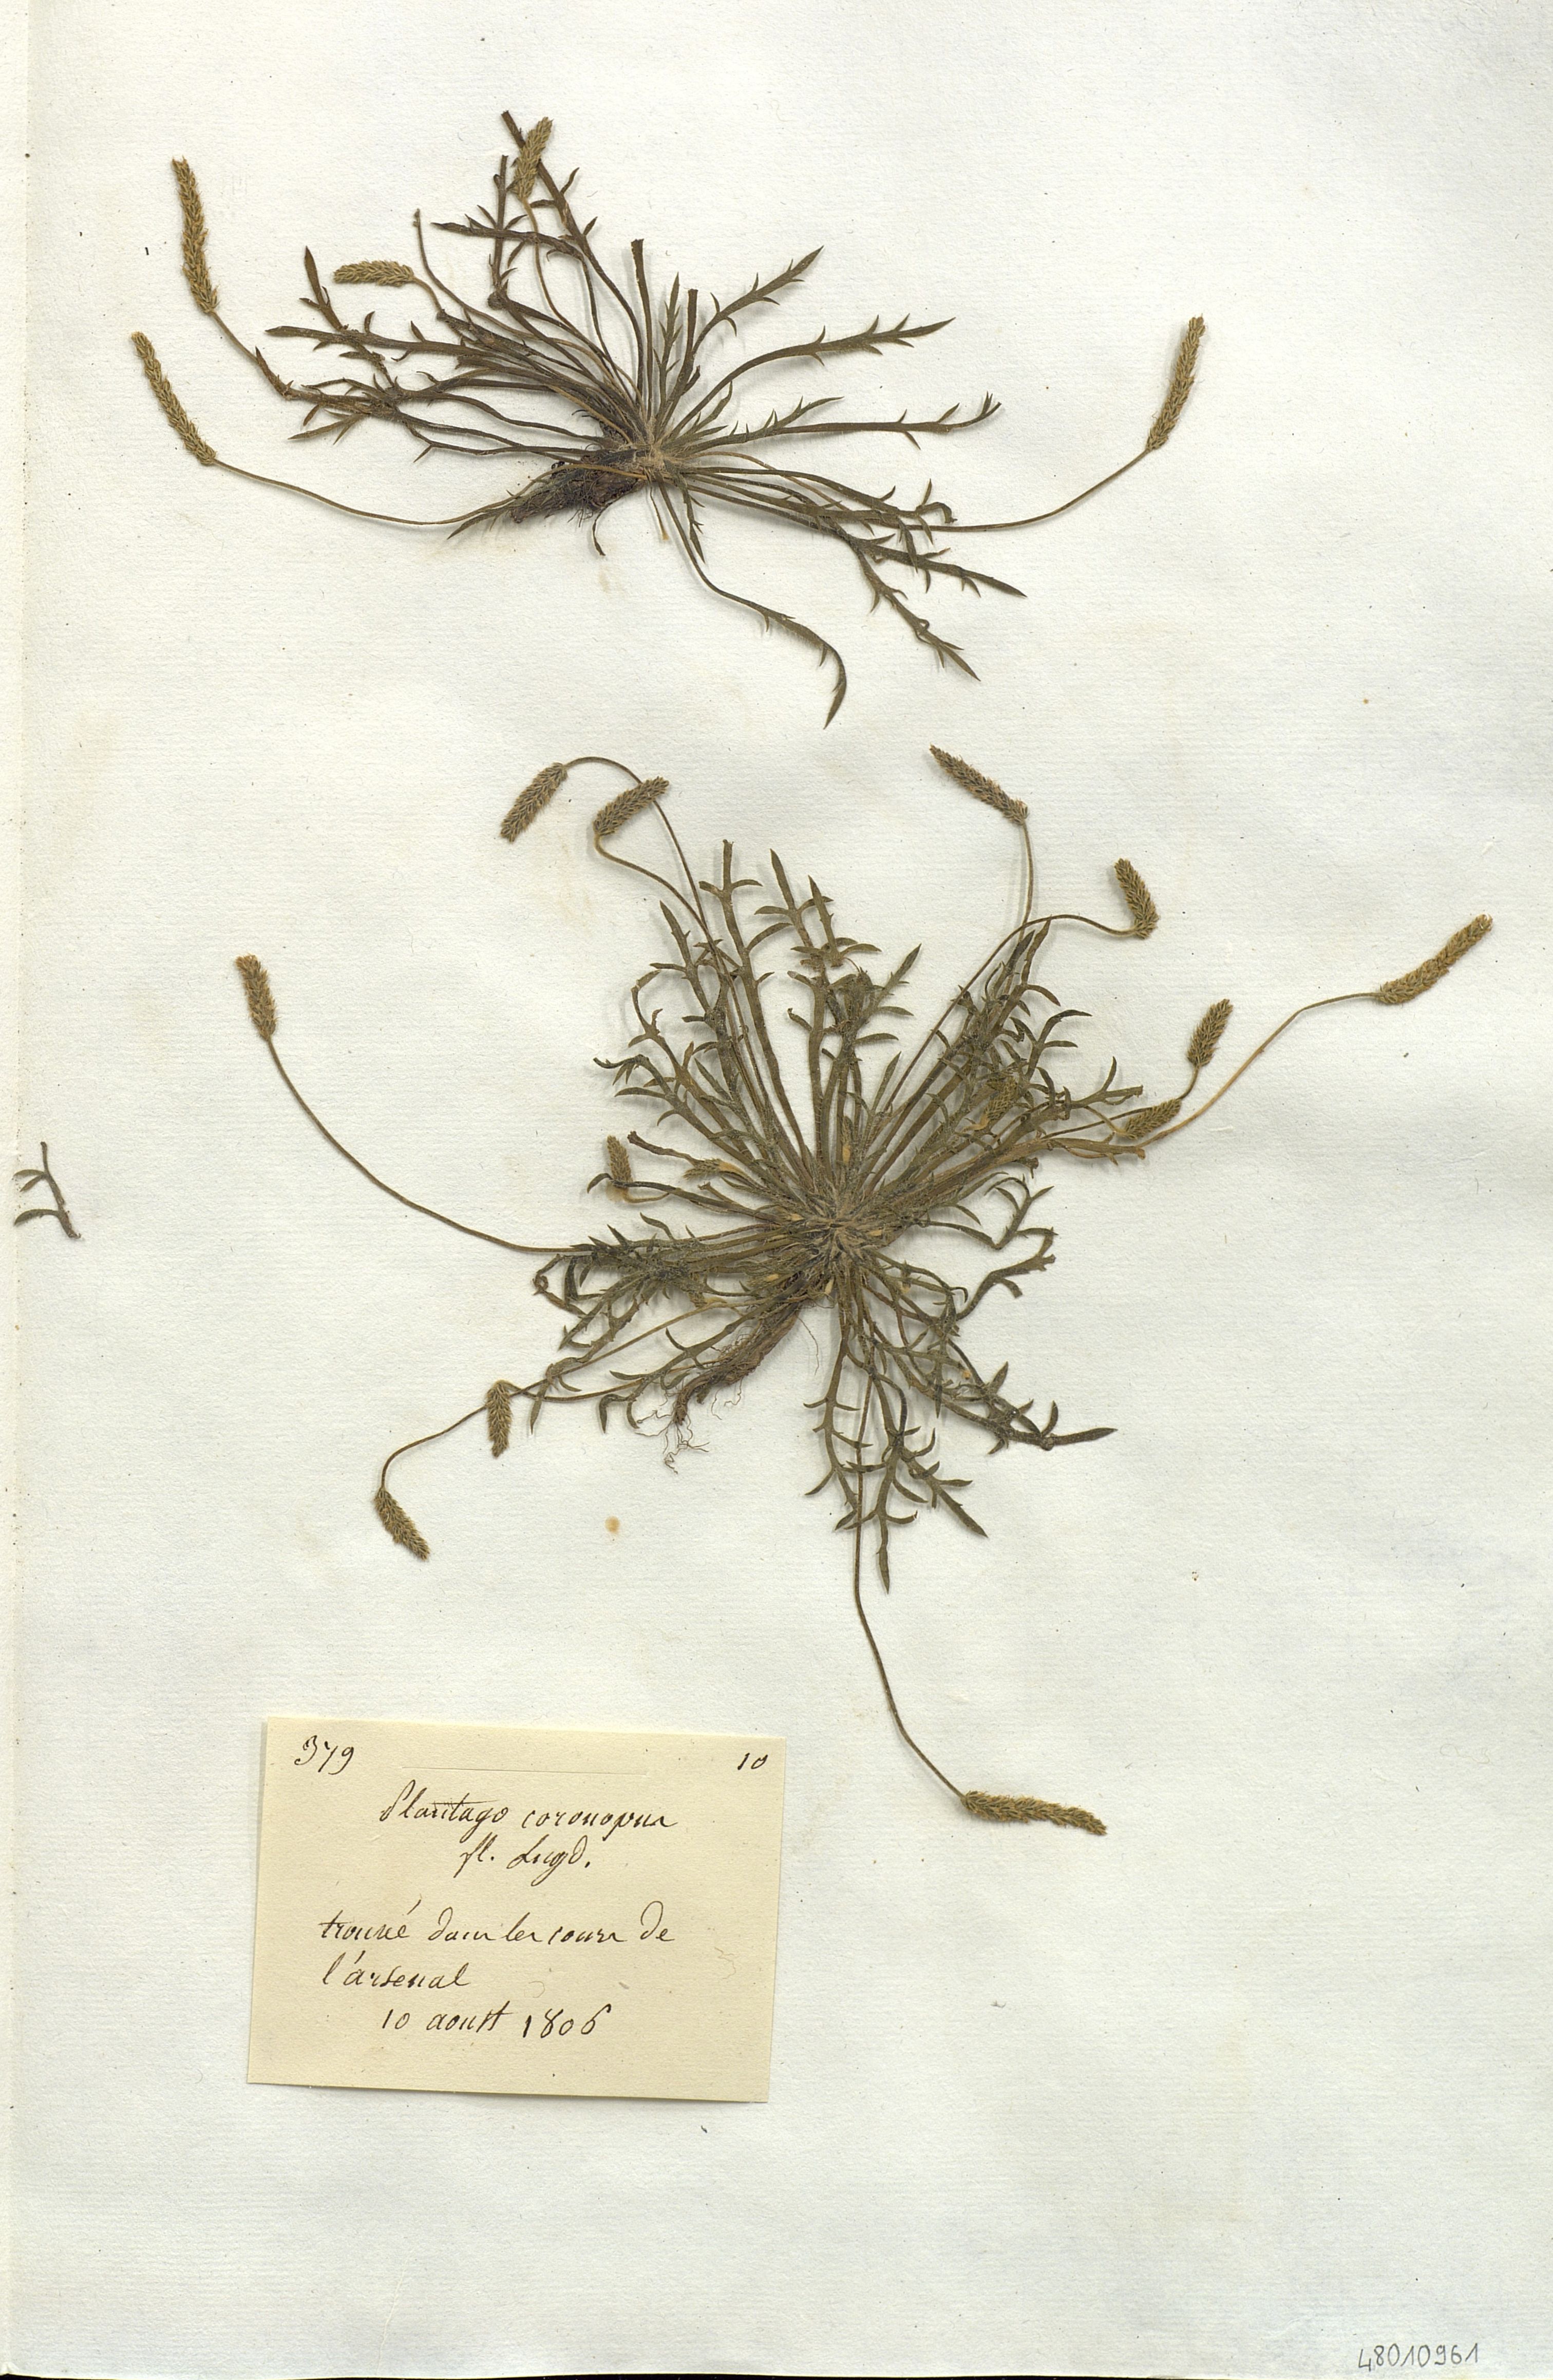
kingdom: Plantae
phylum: Tracheophyta
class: Magnoliopsida
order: Lamiales
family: Plantaginaceae
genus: Plantago
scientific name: Plantago coronopus
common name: Buck's-horn plantain
